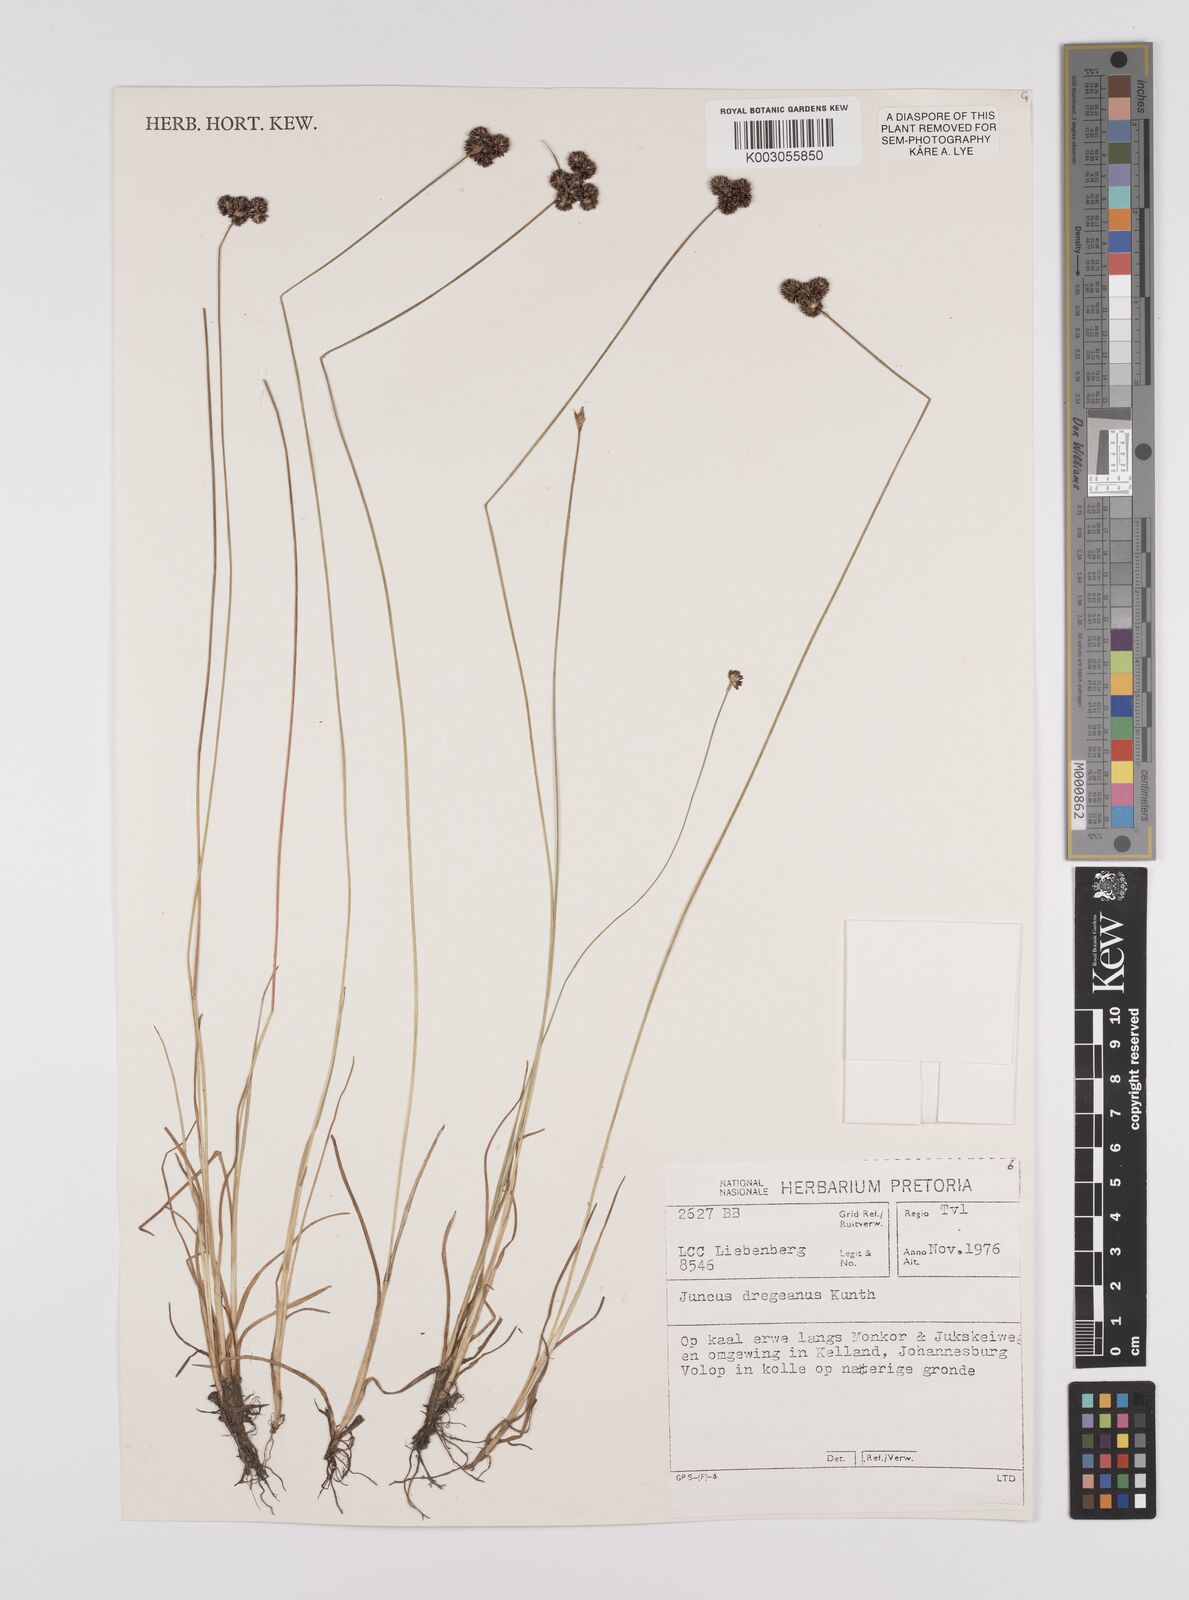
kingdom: Plantae
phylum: Tracheophyta
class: Liliopsida
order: Poales
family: Juncaceae
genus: Juncus
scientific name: Juncus dregeanus
